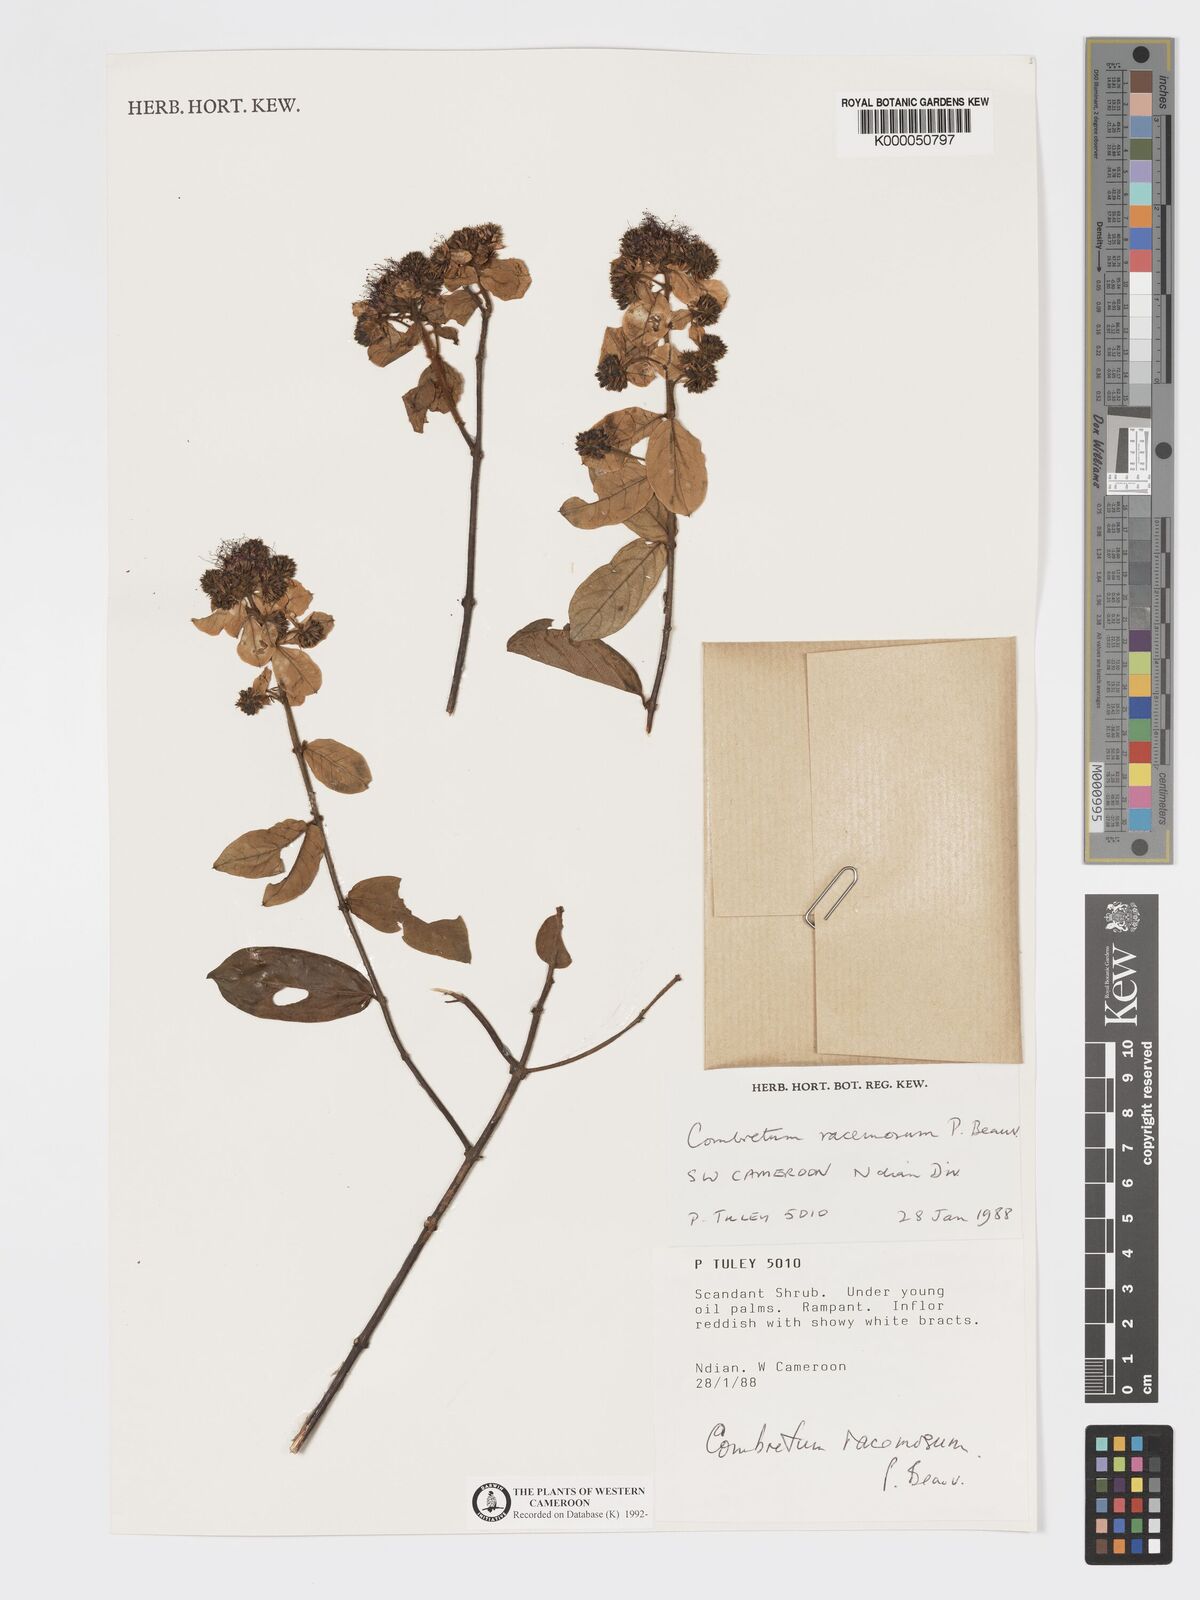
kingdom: Plantae
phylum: Tracheophyta
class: Magnoliopsida
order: Myrtales
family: Combretaceae
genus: Combretum
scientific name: Combretum racemosum
